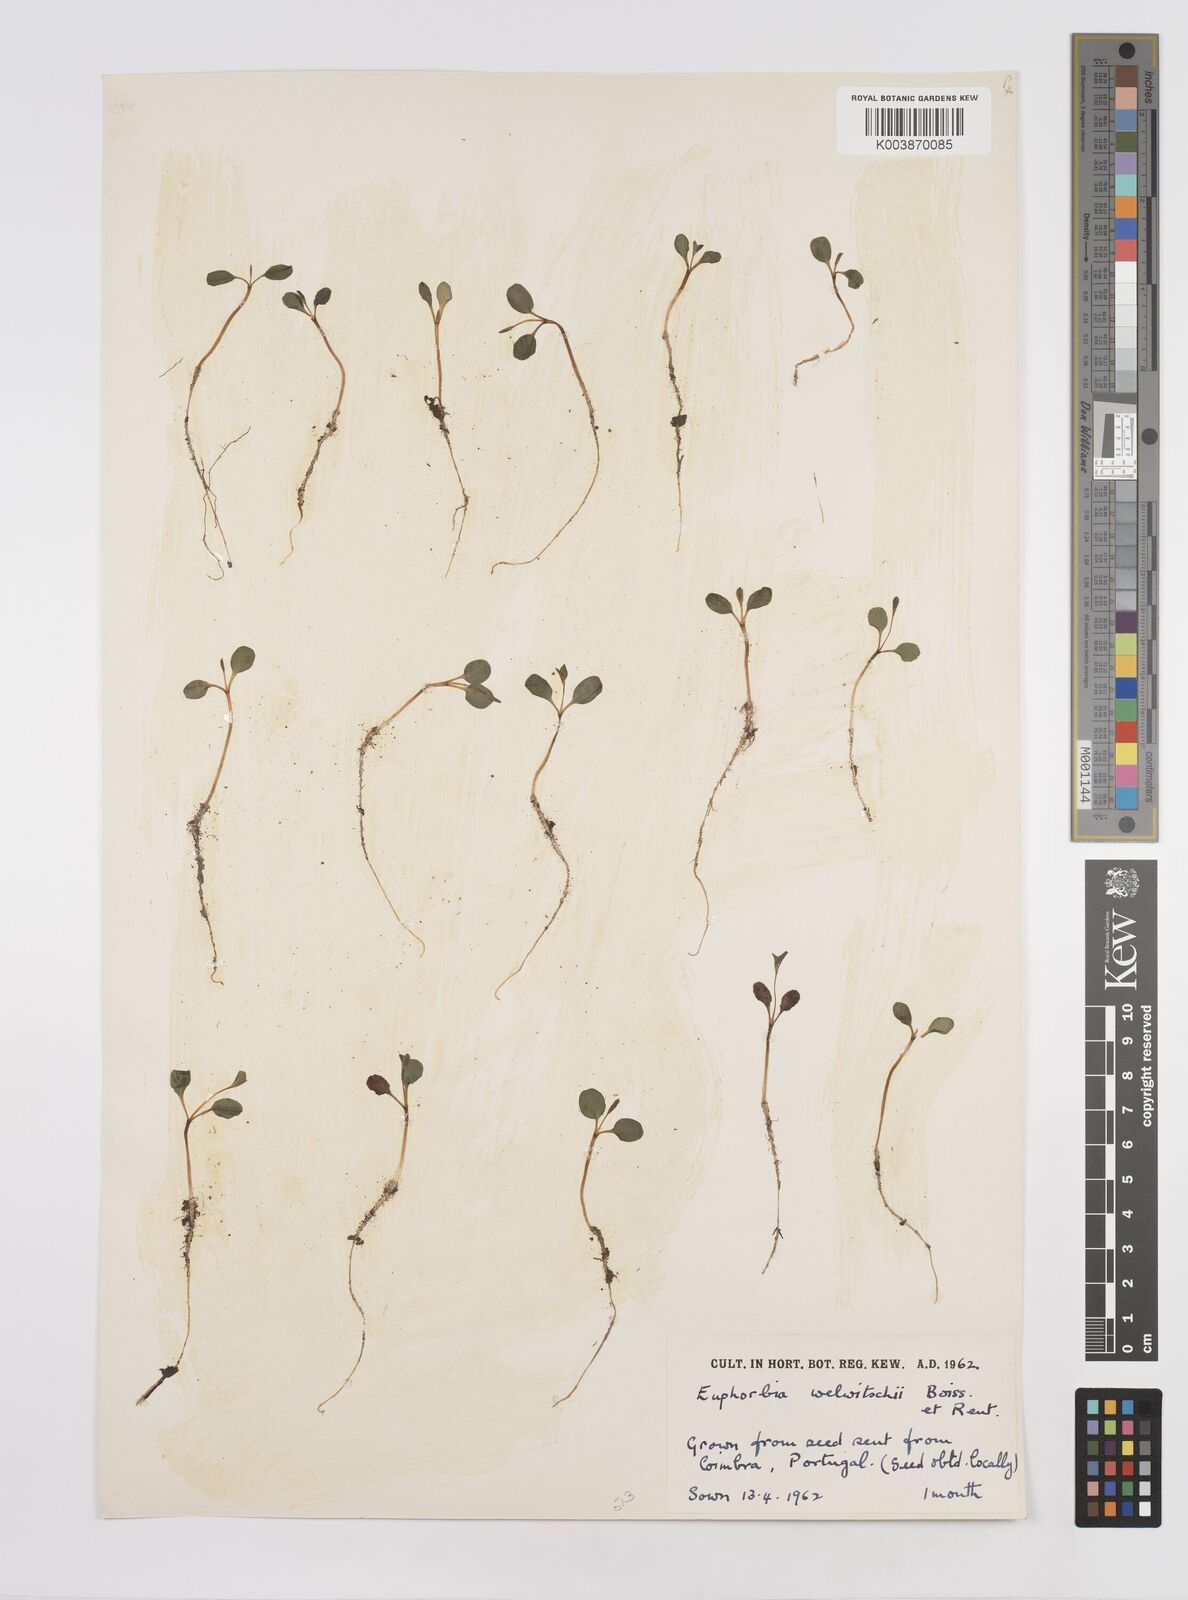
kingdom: Plantae
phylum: Tracheophyta
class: Magnoliopsida
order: Malpighiales
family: Euphorbiaceae
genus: Euphorbia
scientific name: Euphorbia paniculata
